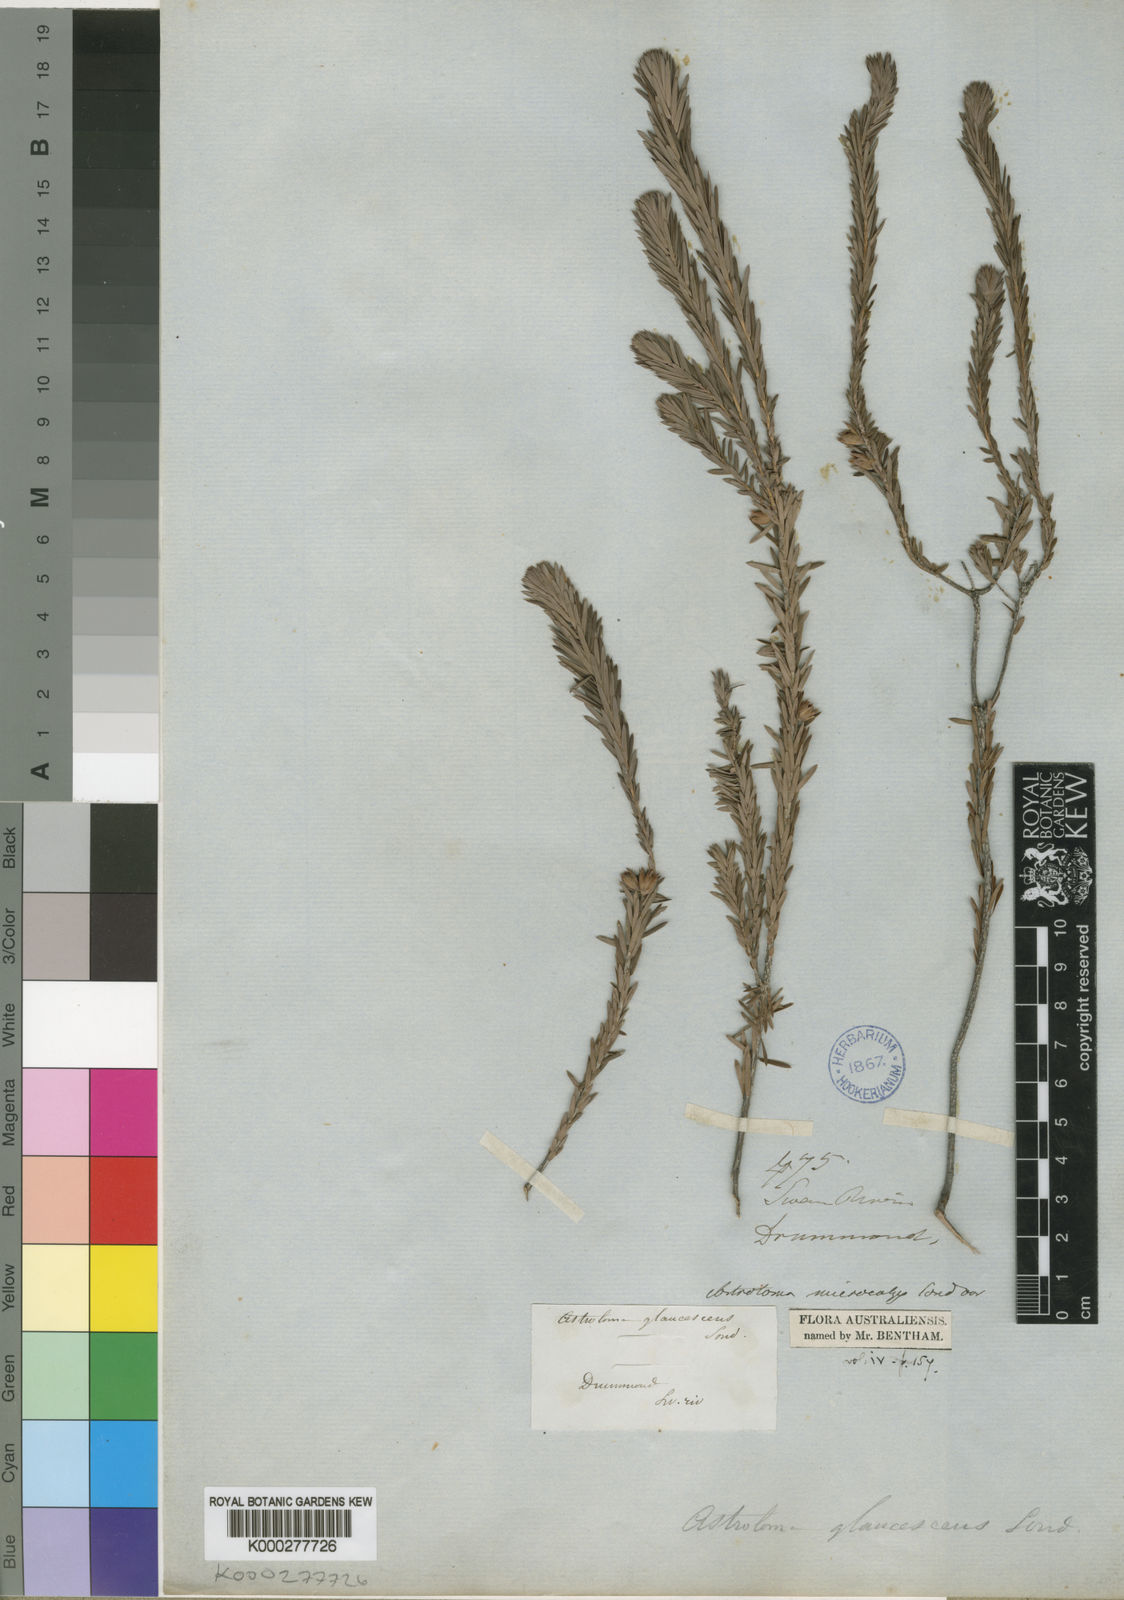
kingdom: Plantae
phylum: Tracheophyta
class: Magnoliopsida
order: Ericales
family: Ericaceae
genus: Styphelia
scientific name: Styphelia tortifolia
